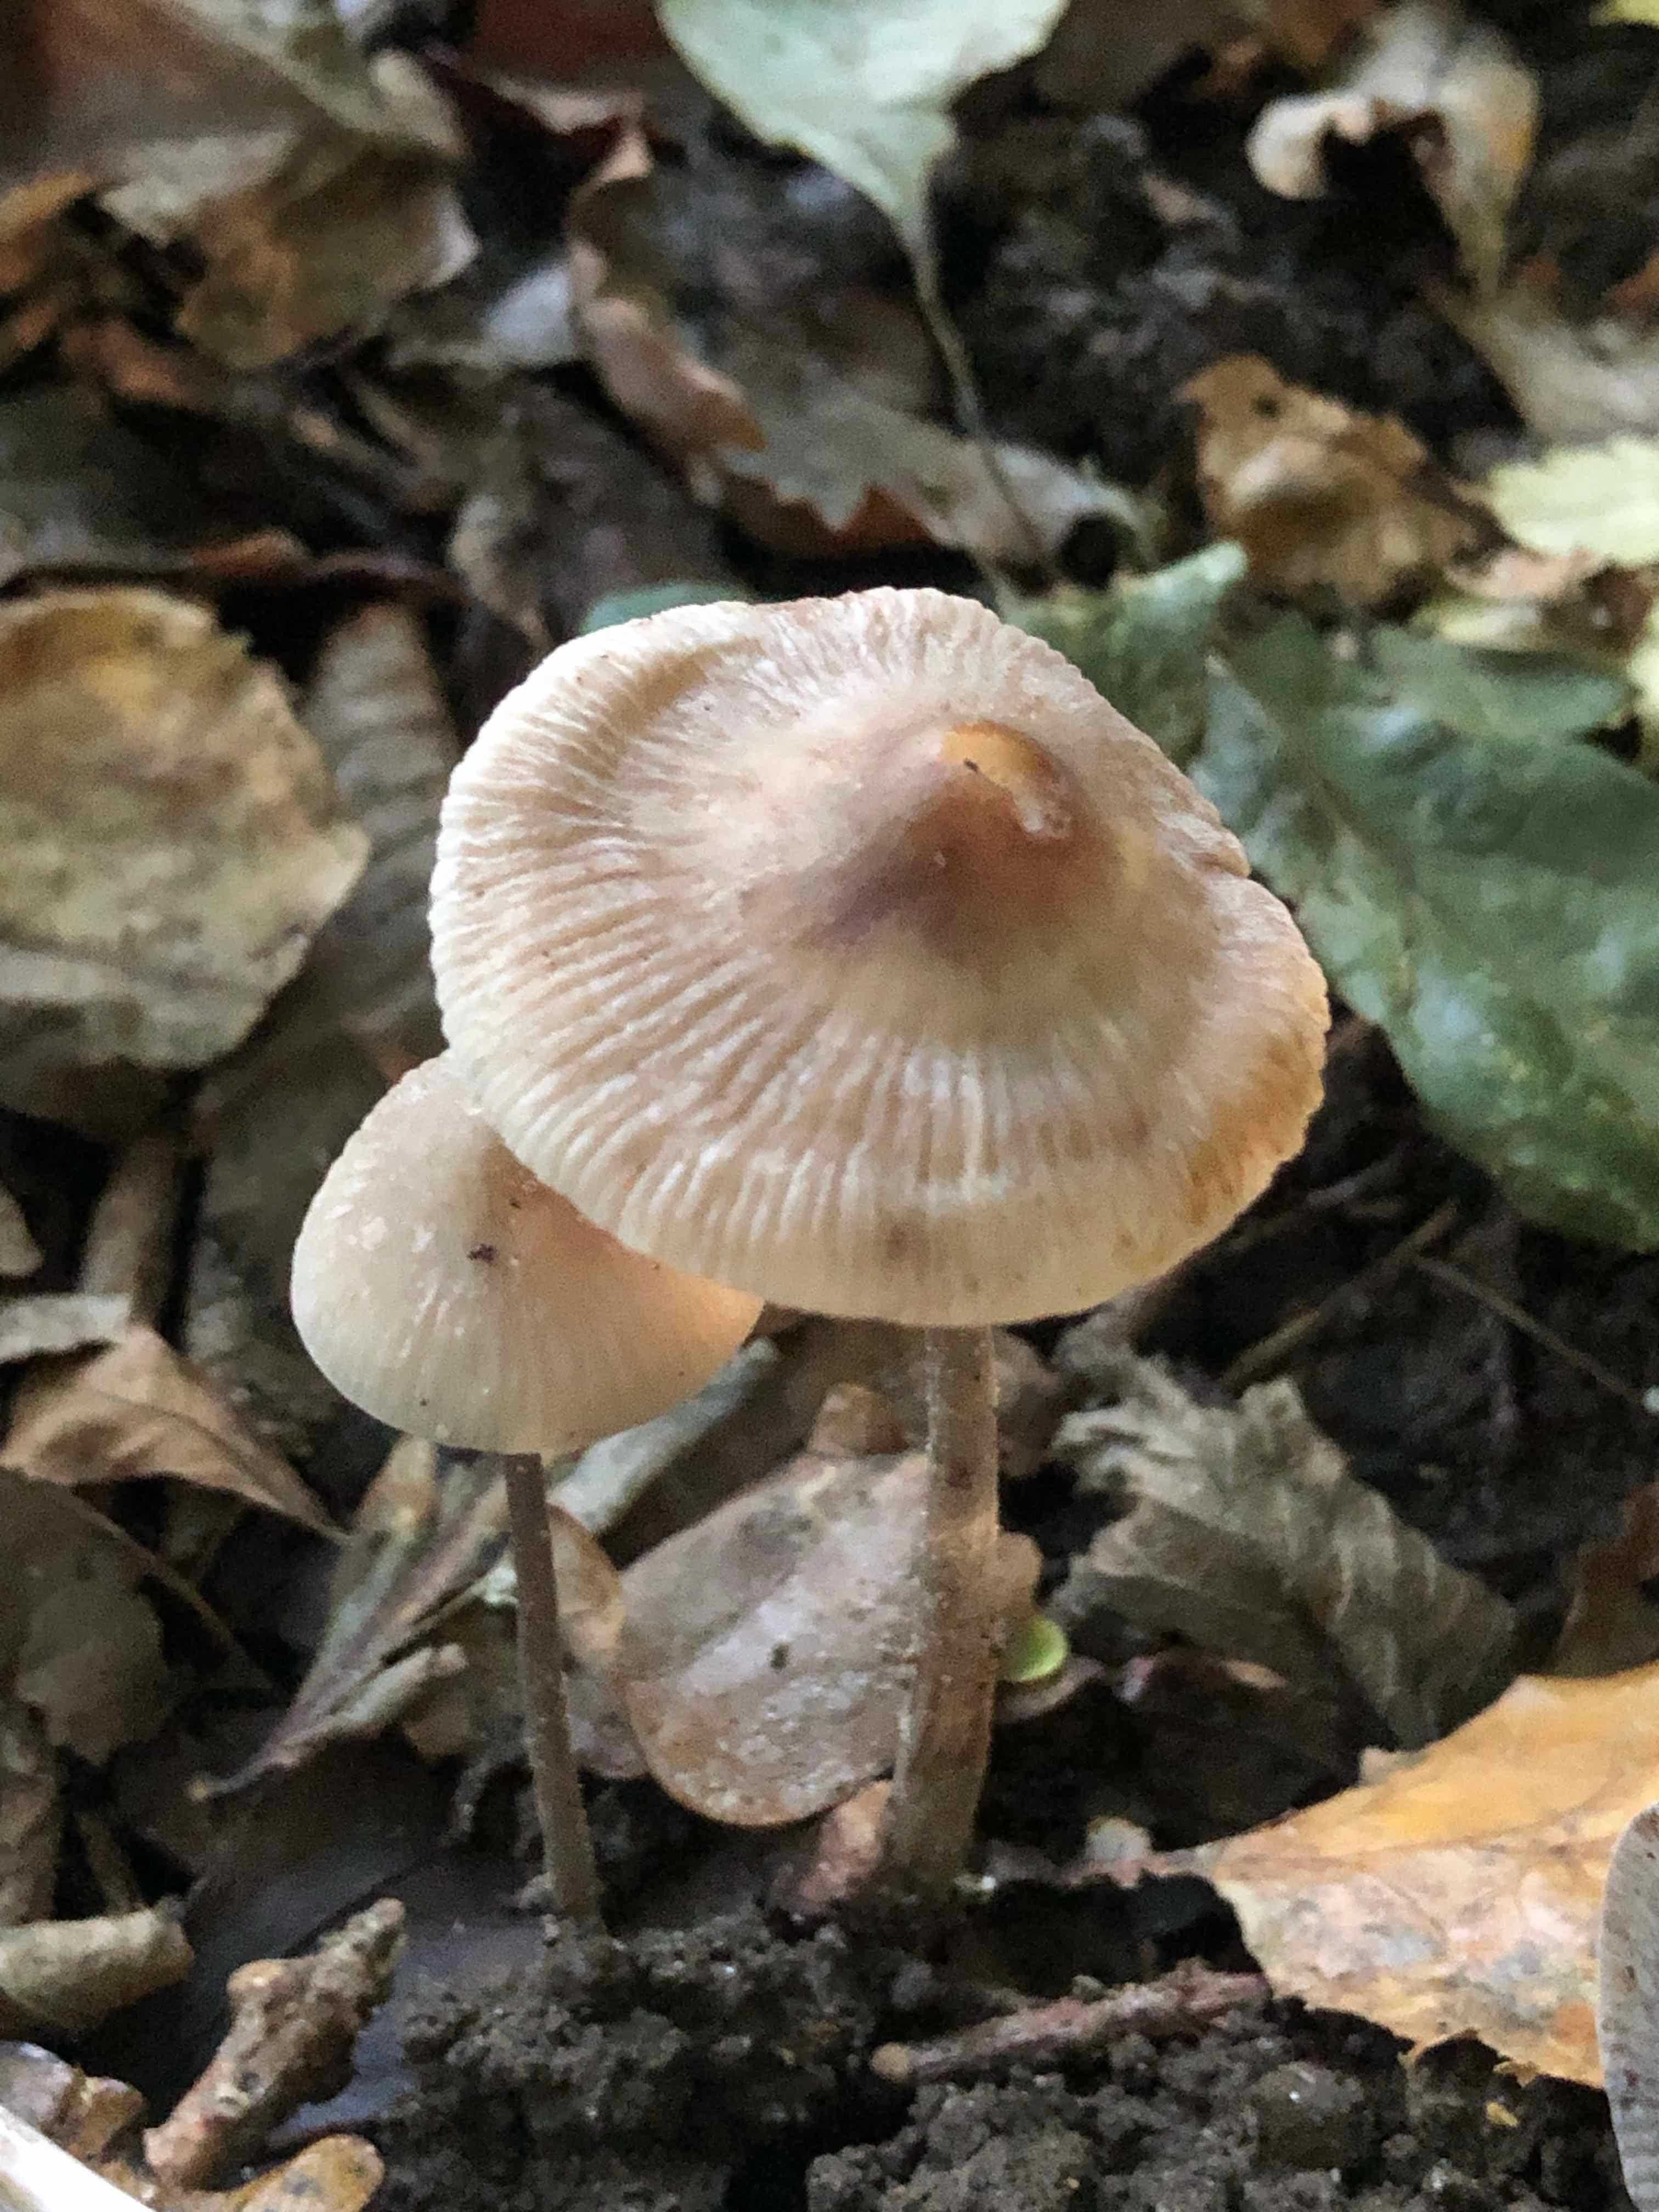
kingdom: Fungi
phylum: Basidiomycota
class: Agaricomycetes
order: Agaricales
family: Mycenaceae
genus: Mycena
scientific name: Mycena polygramma
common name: mangestribet huesvamp
